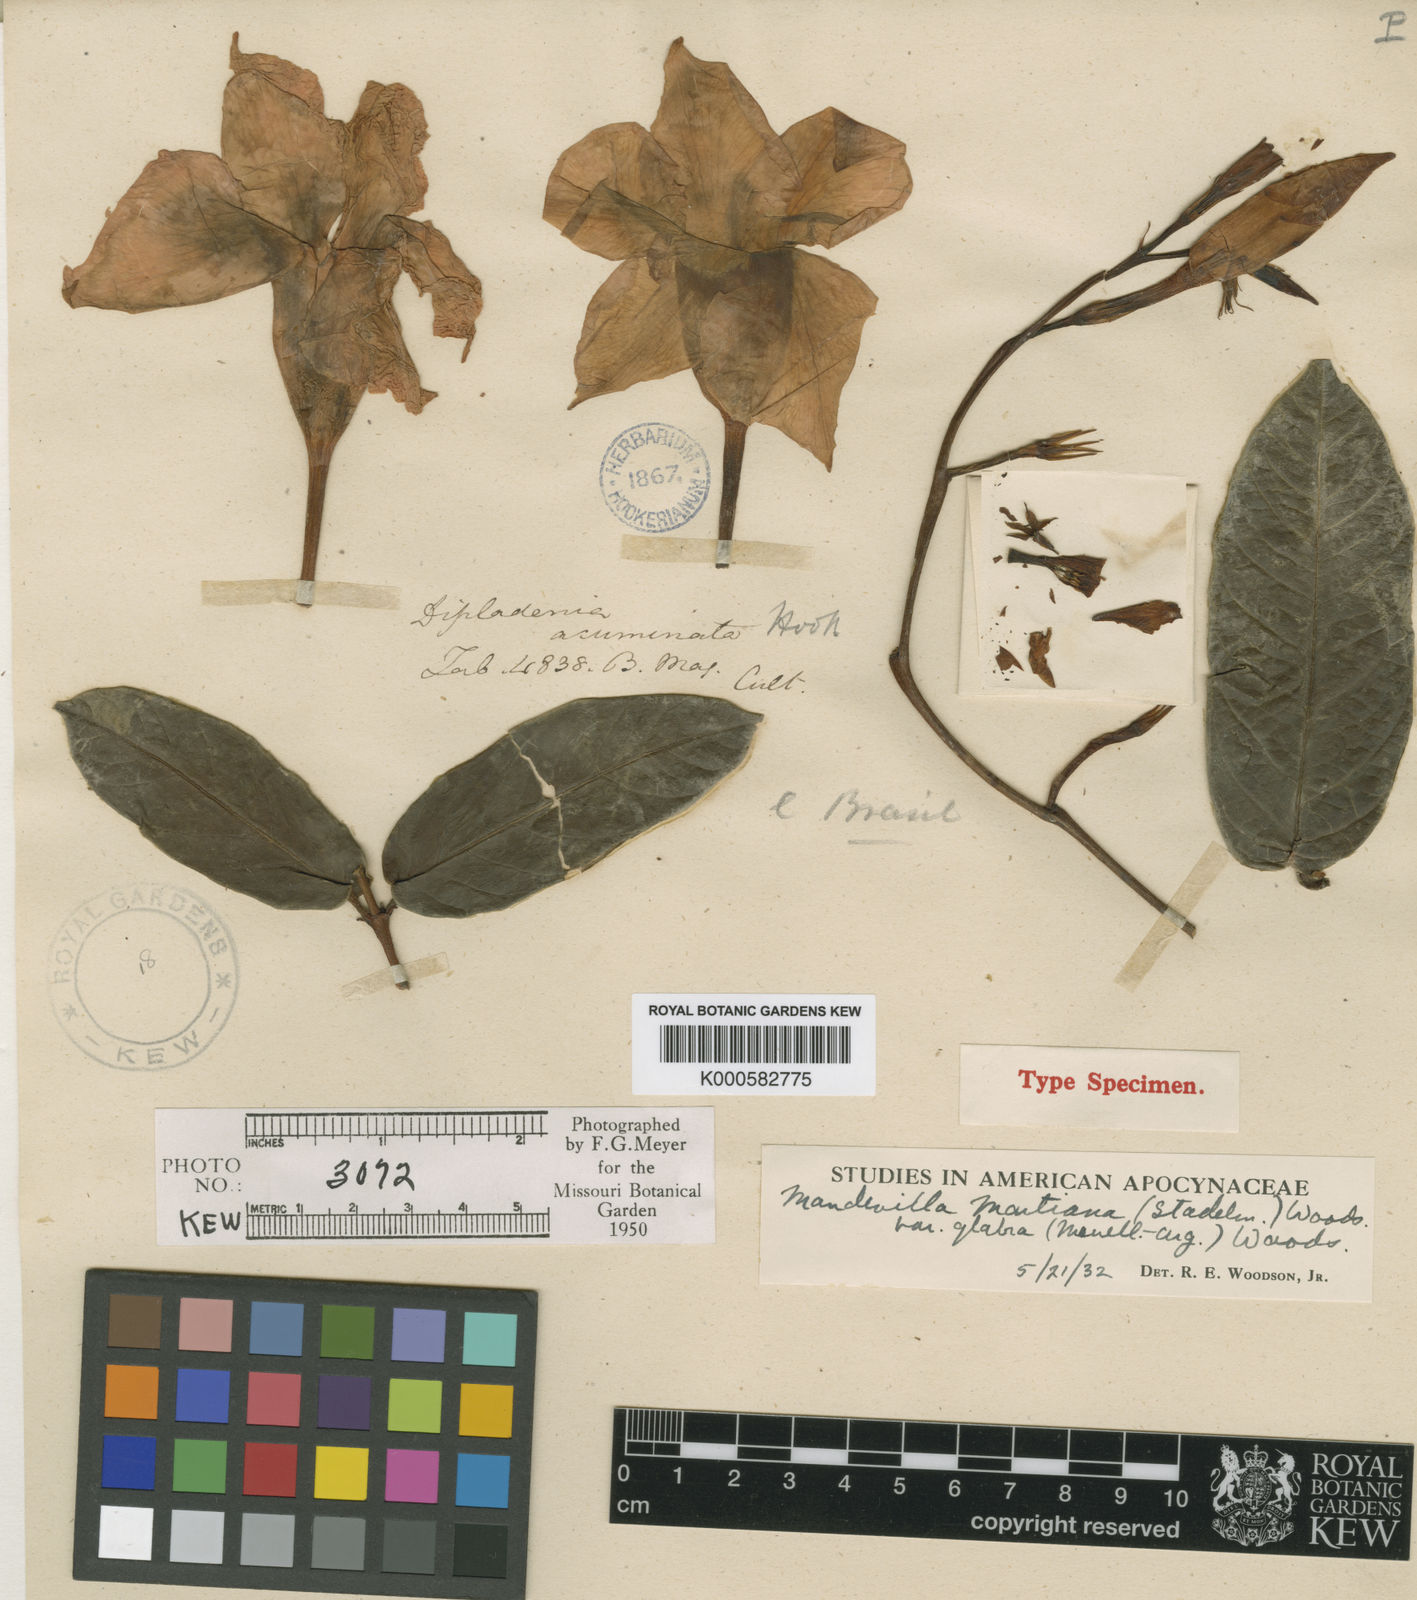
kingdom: Plantae
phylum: Tracheophyta
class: Magnoliopsida
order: Gentianales
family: Apocynaceae
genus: Mandevilla
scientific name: Mandevilla martiana
